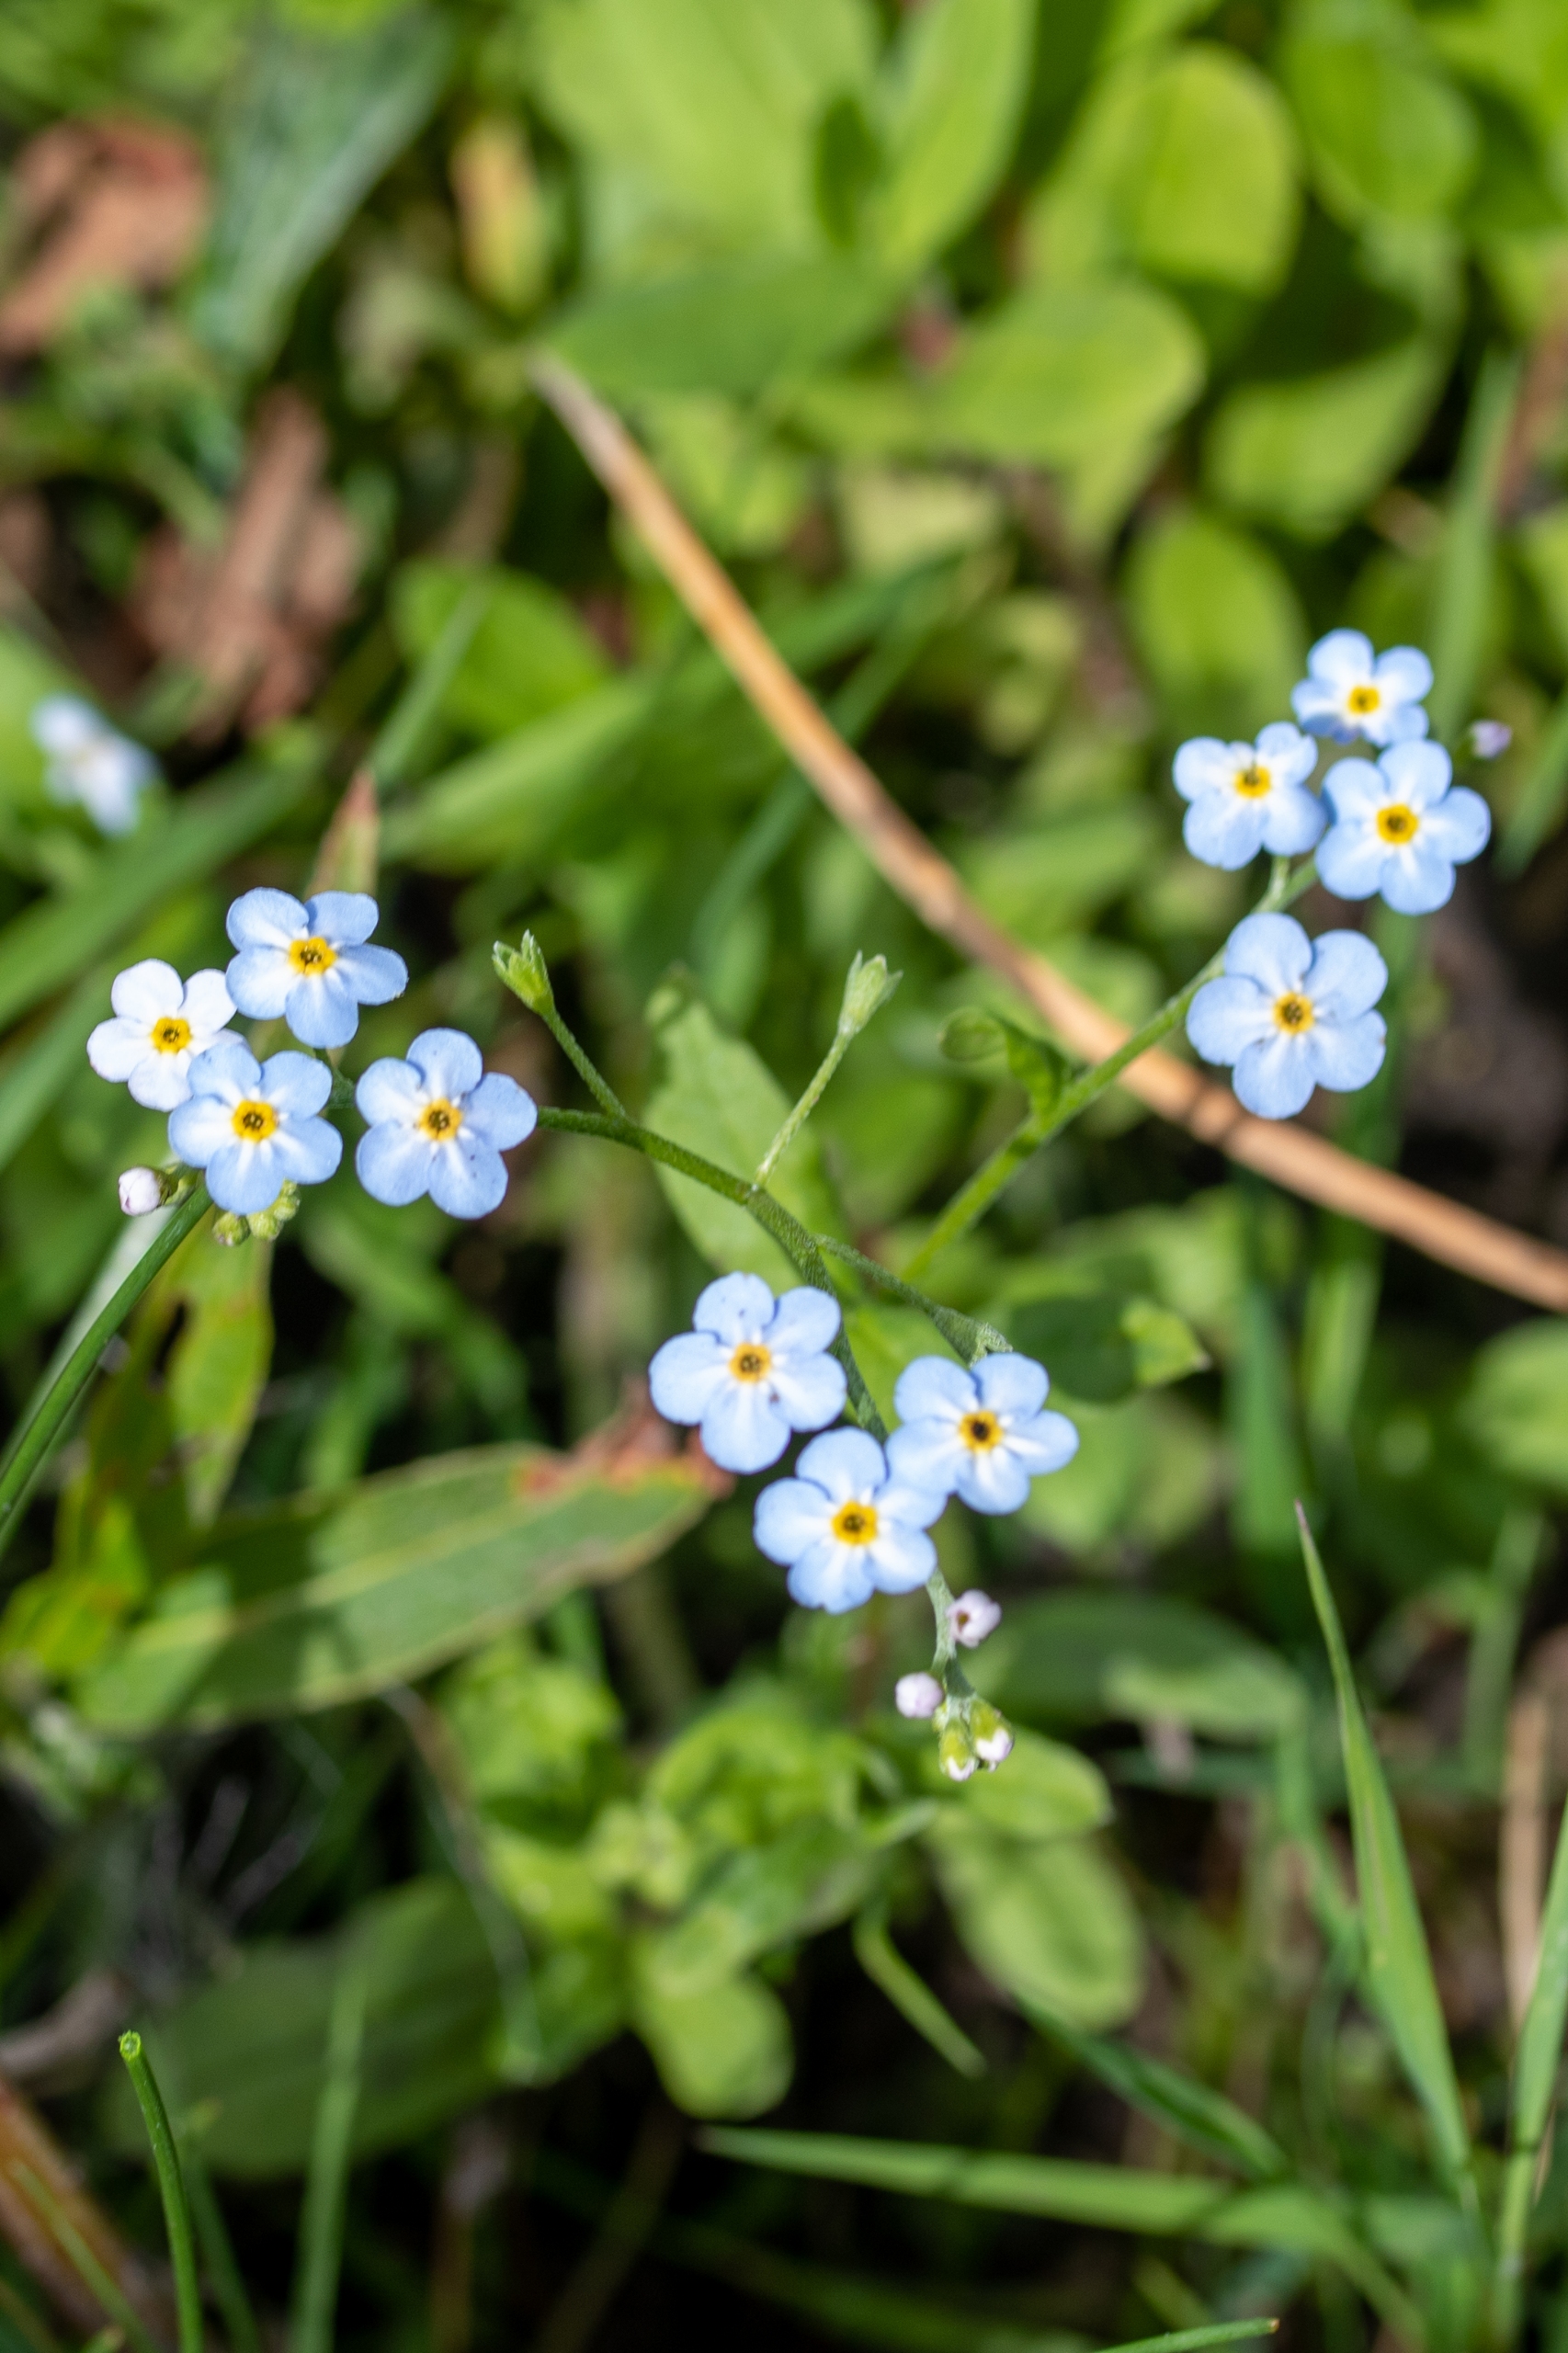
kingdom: Plantae
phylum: Tracheophyta
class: Magnoliopsida
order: Boraginales
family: Boraginaceae
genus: Myosotis
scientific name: Myosotis scorpioides
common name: Eng-forglemmigej
